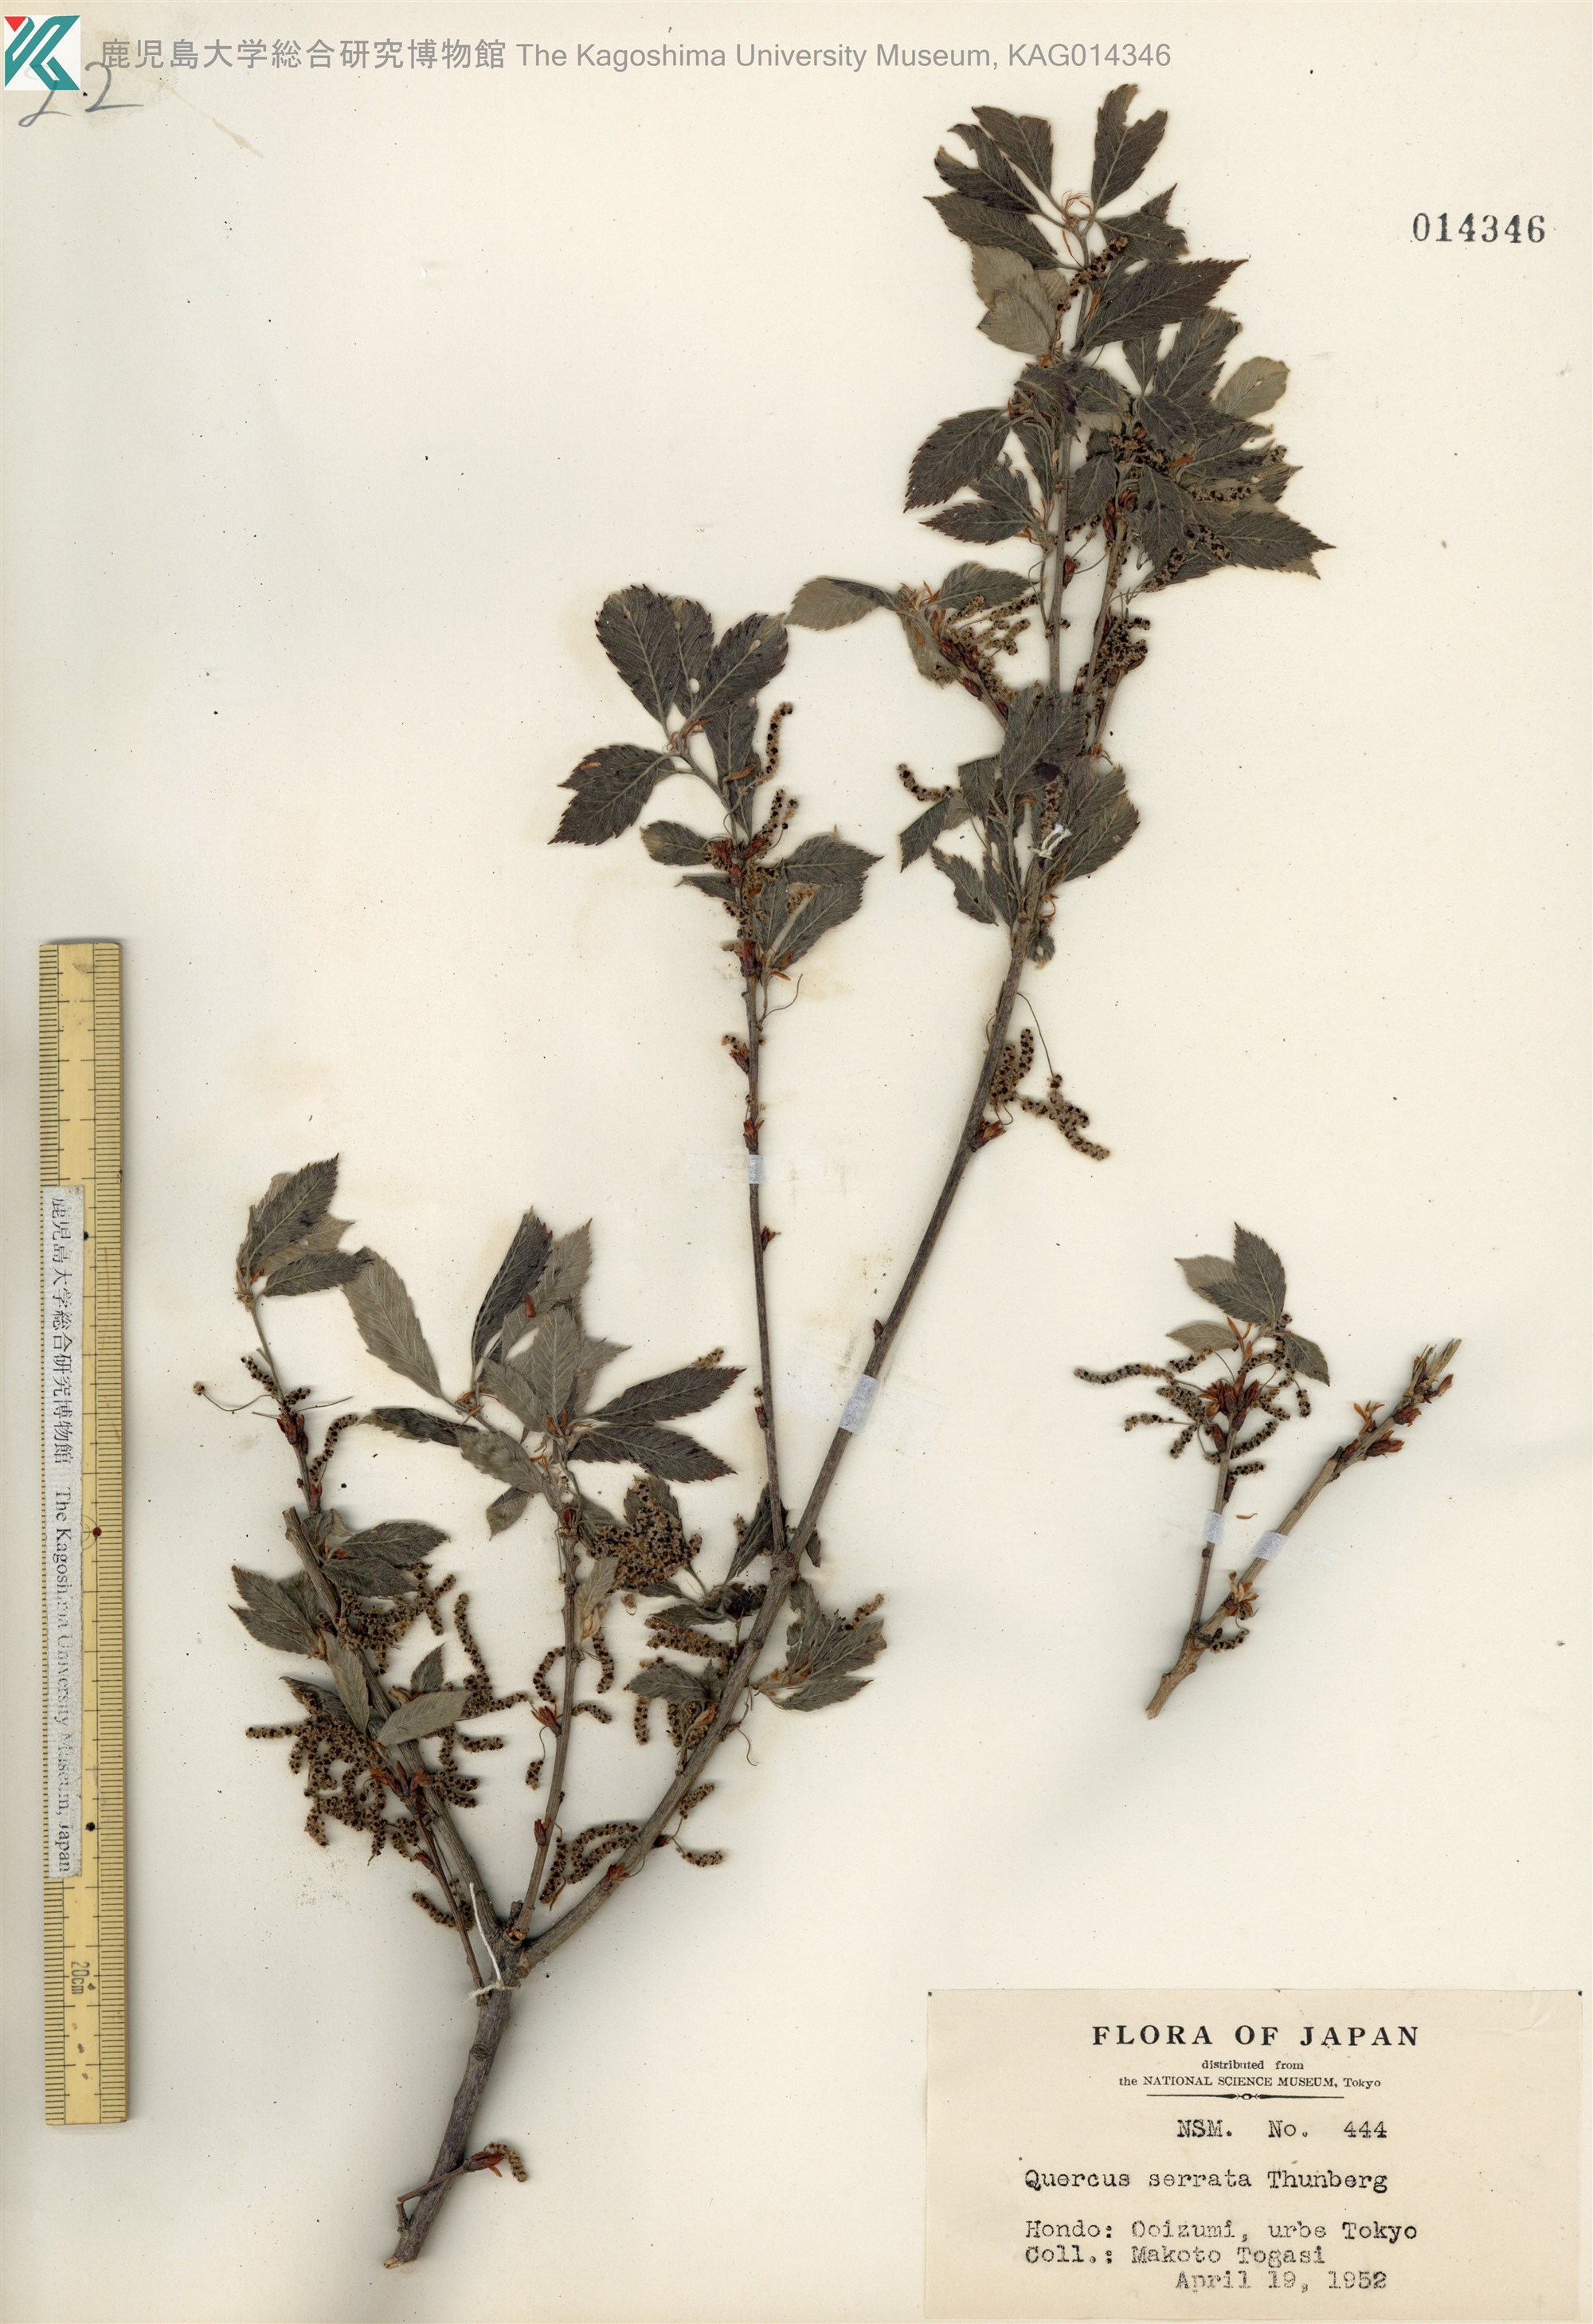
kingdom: Plantae
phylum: Tracheophyta
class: Magnoliopsida
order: Fagales
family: Fagaceae
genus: Quercus
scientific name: Quercus serrata
